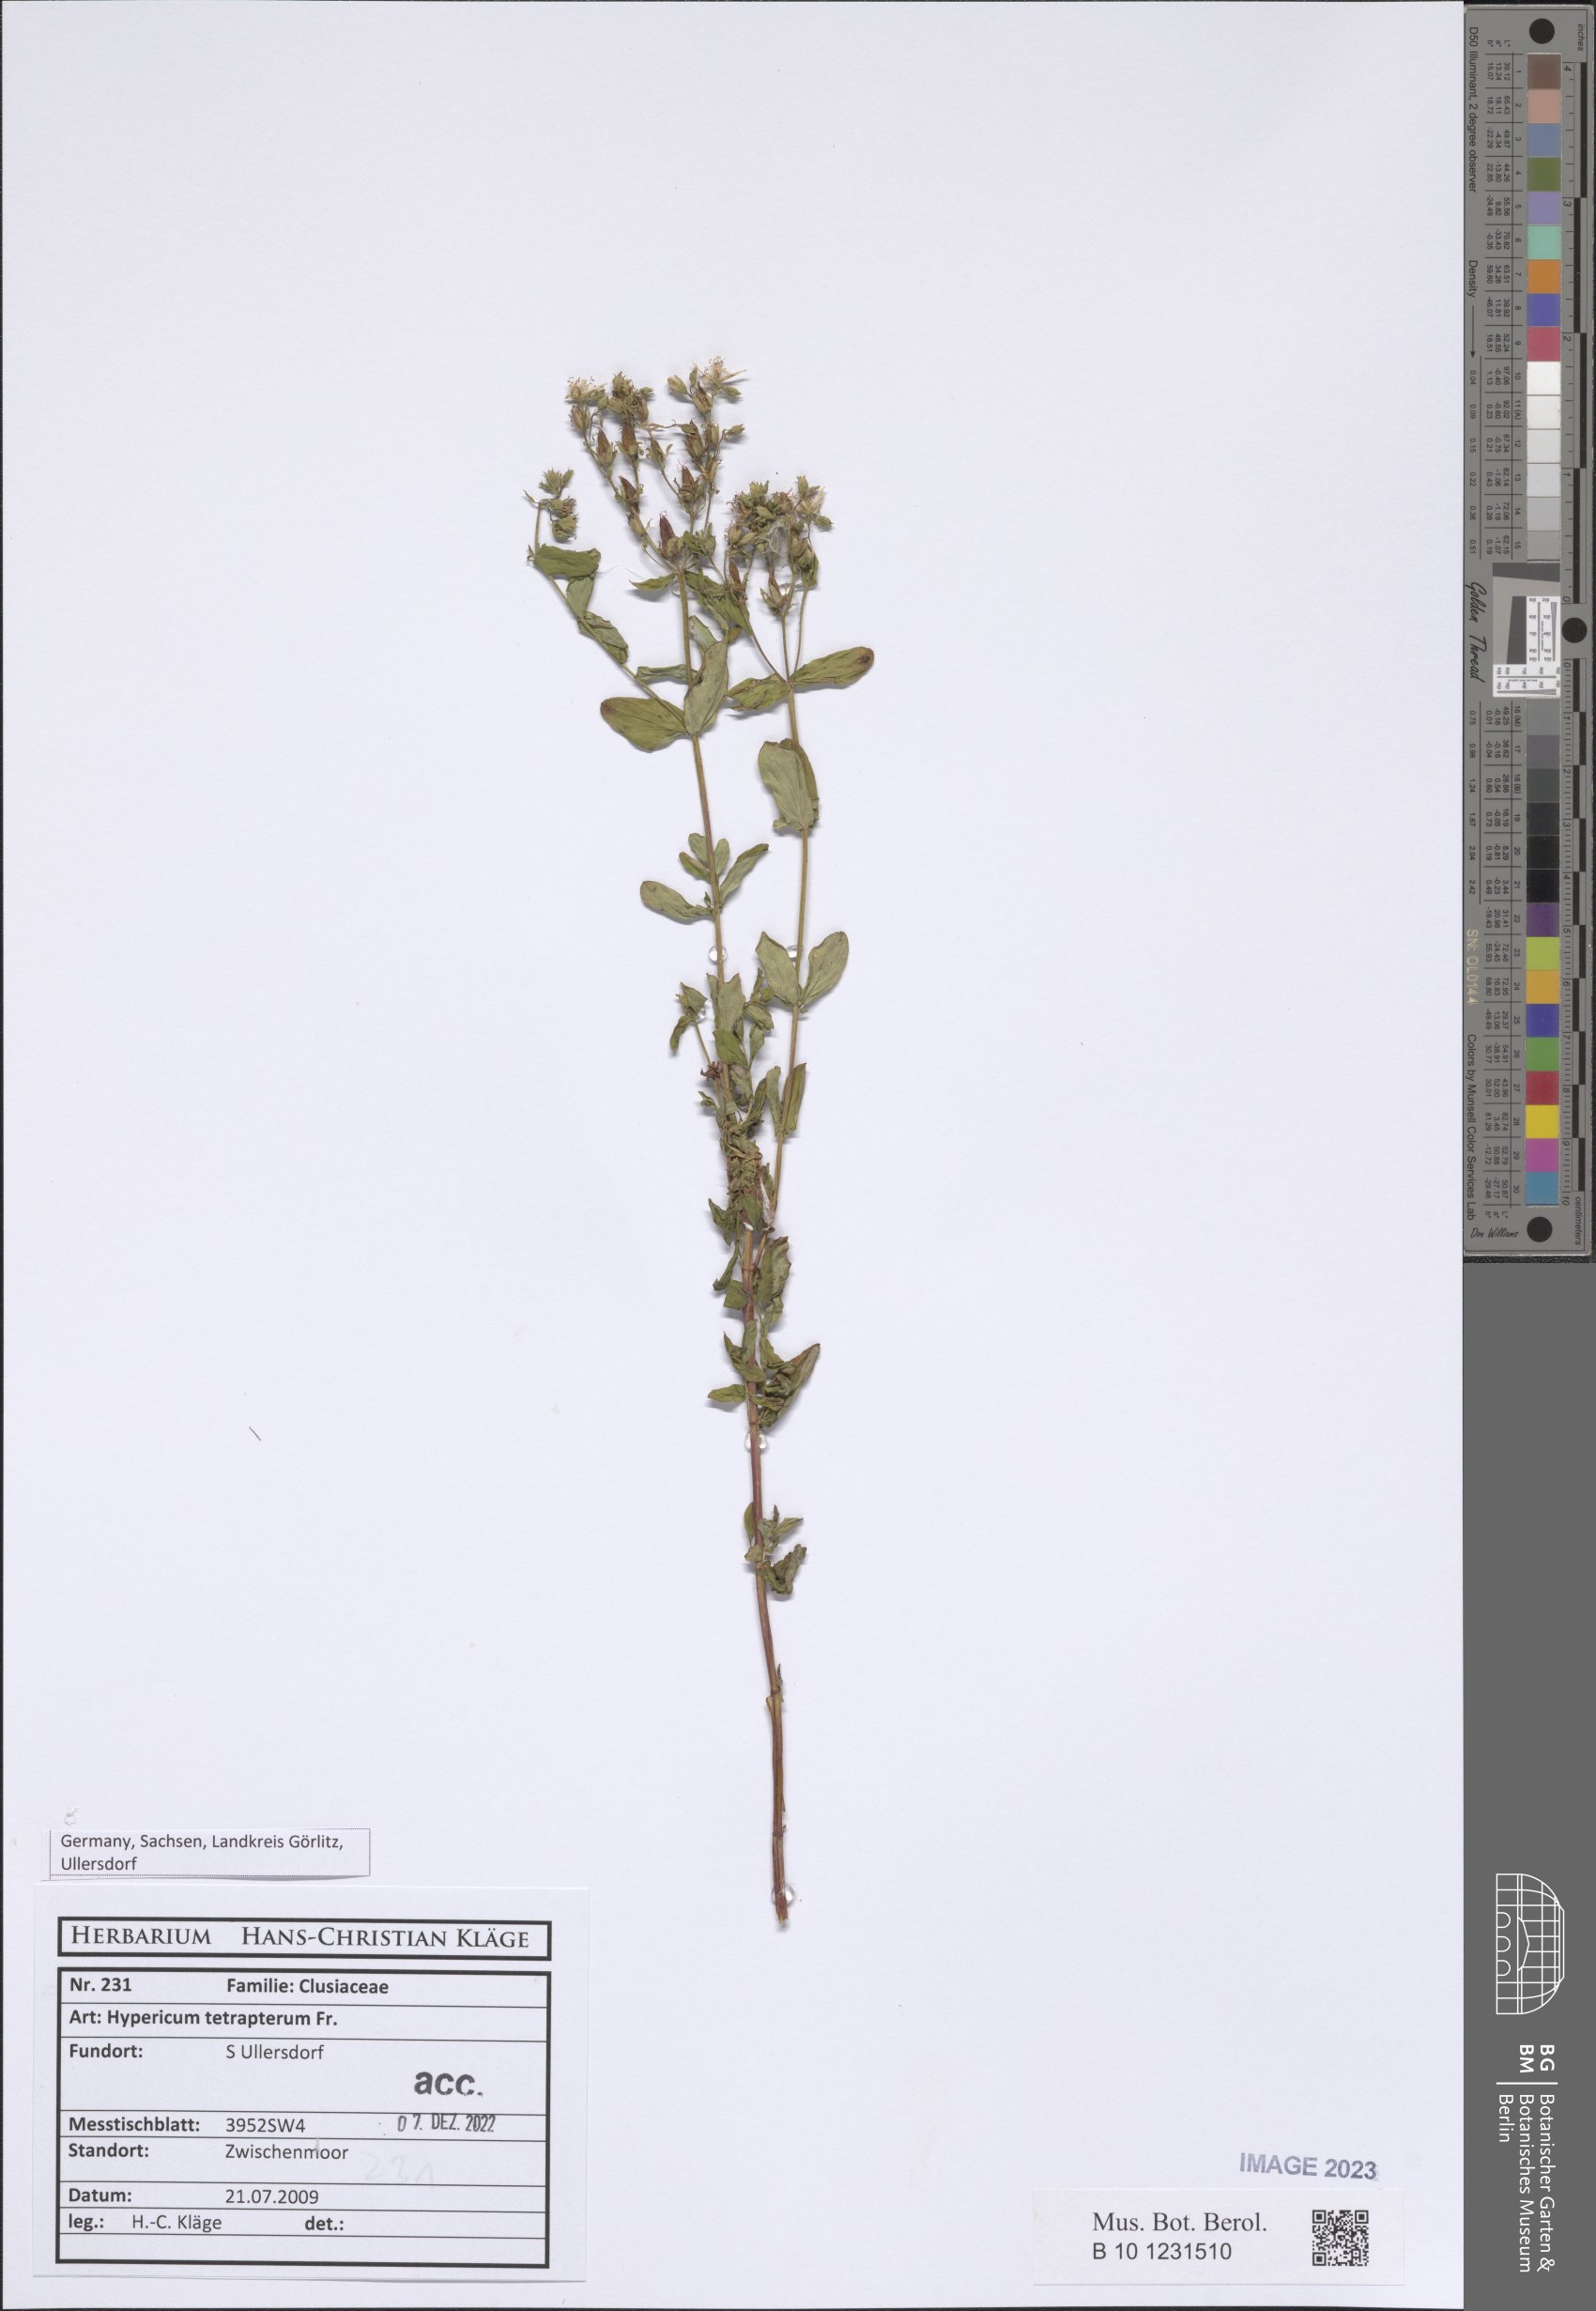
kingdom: Plantae
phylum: Tracheophyta
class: Magnoliopsida
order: Malpighiales
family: Hypericaceae
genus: Hypericum
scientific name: Hypericum tetrapterum
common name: Square-stalked st. john's-wort
